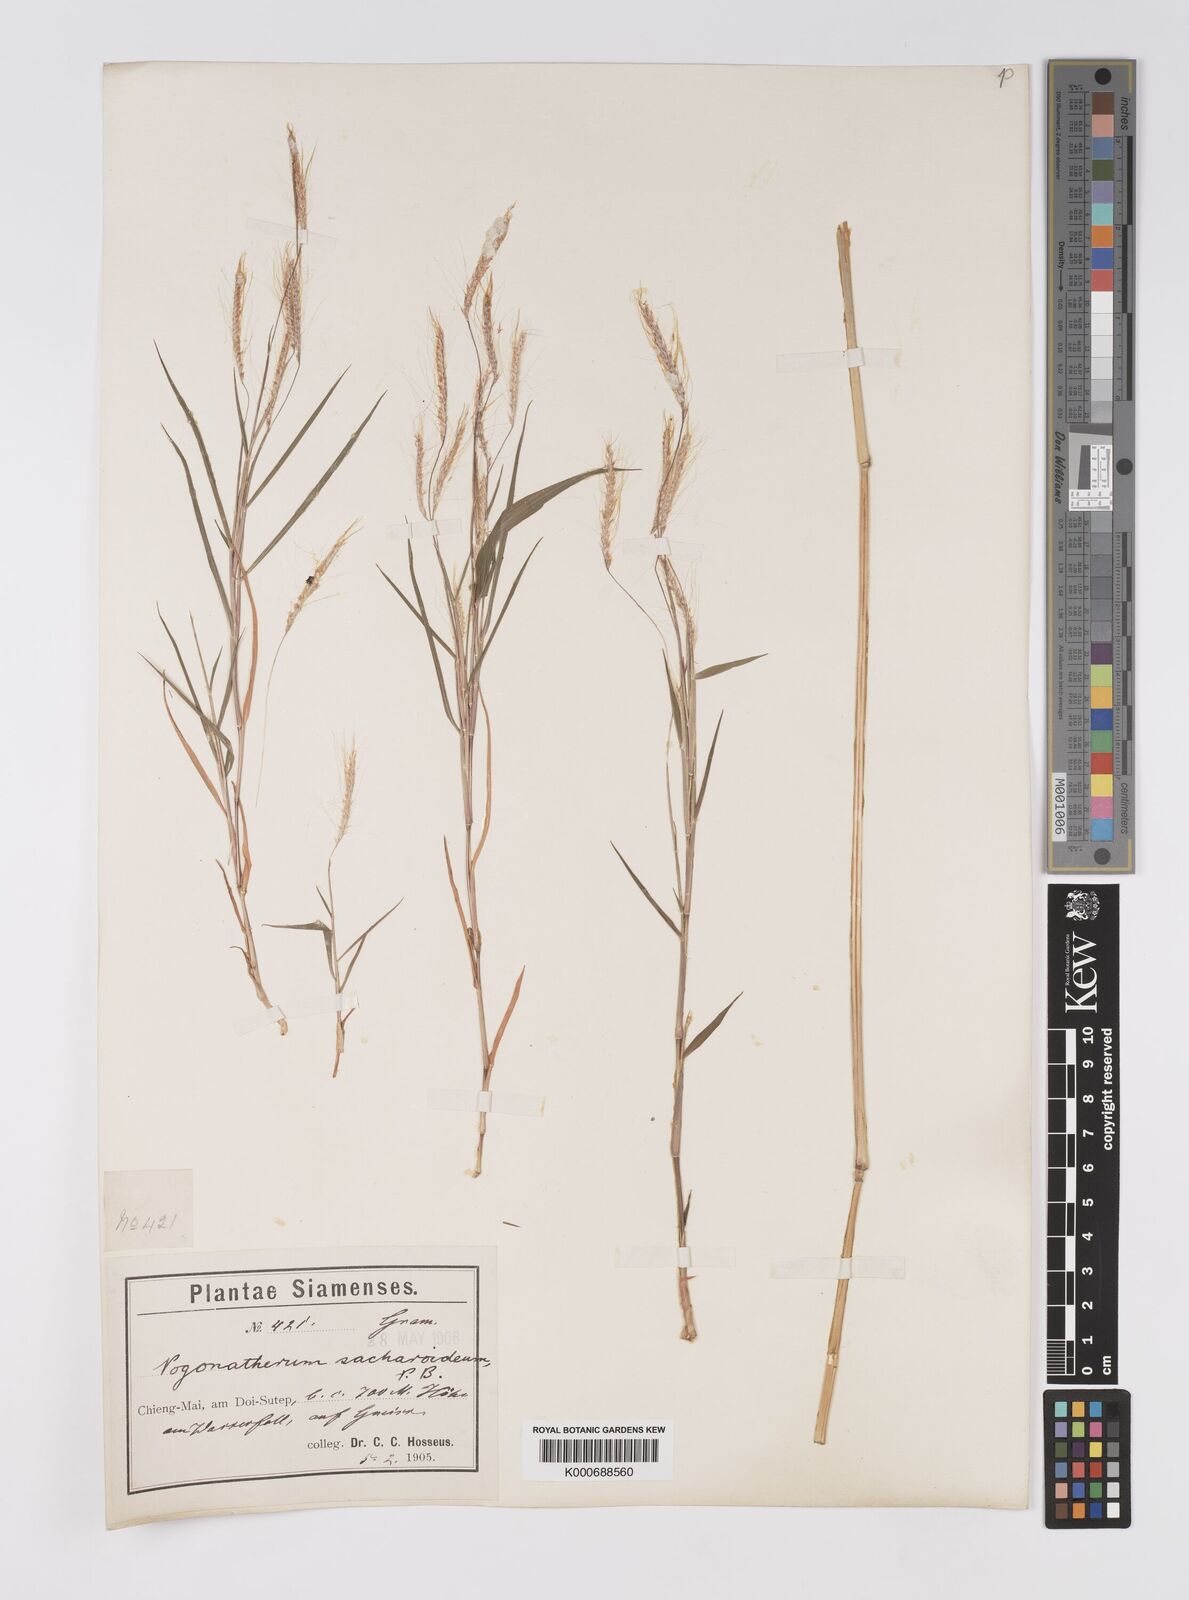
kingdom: Plantae
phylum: Tracheophyta
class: Liliopsida
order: Poales
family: Poaceae
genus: Pogonatherum
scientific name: Pogonatherum paniceum
